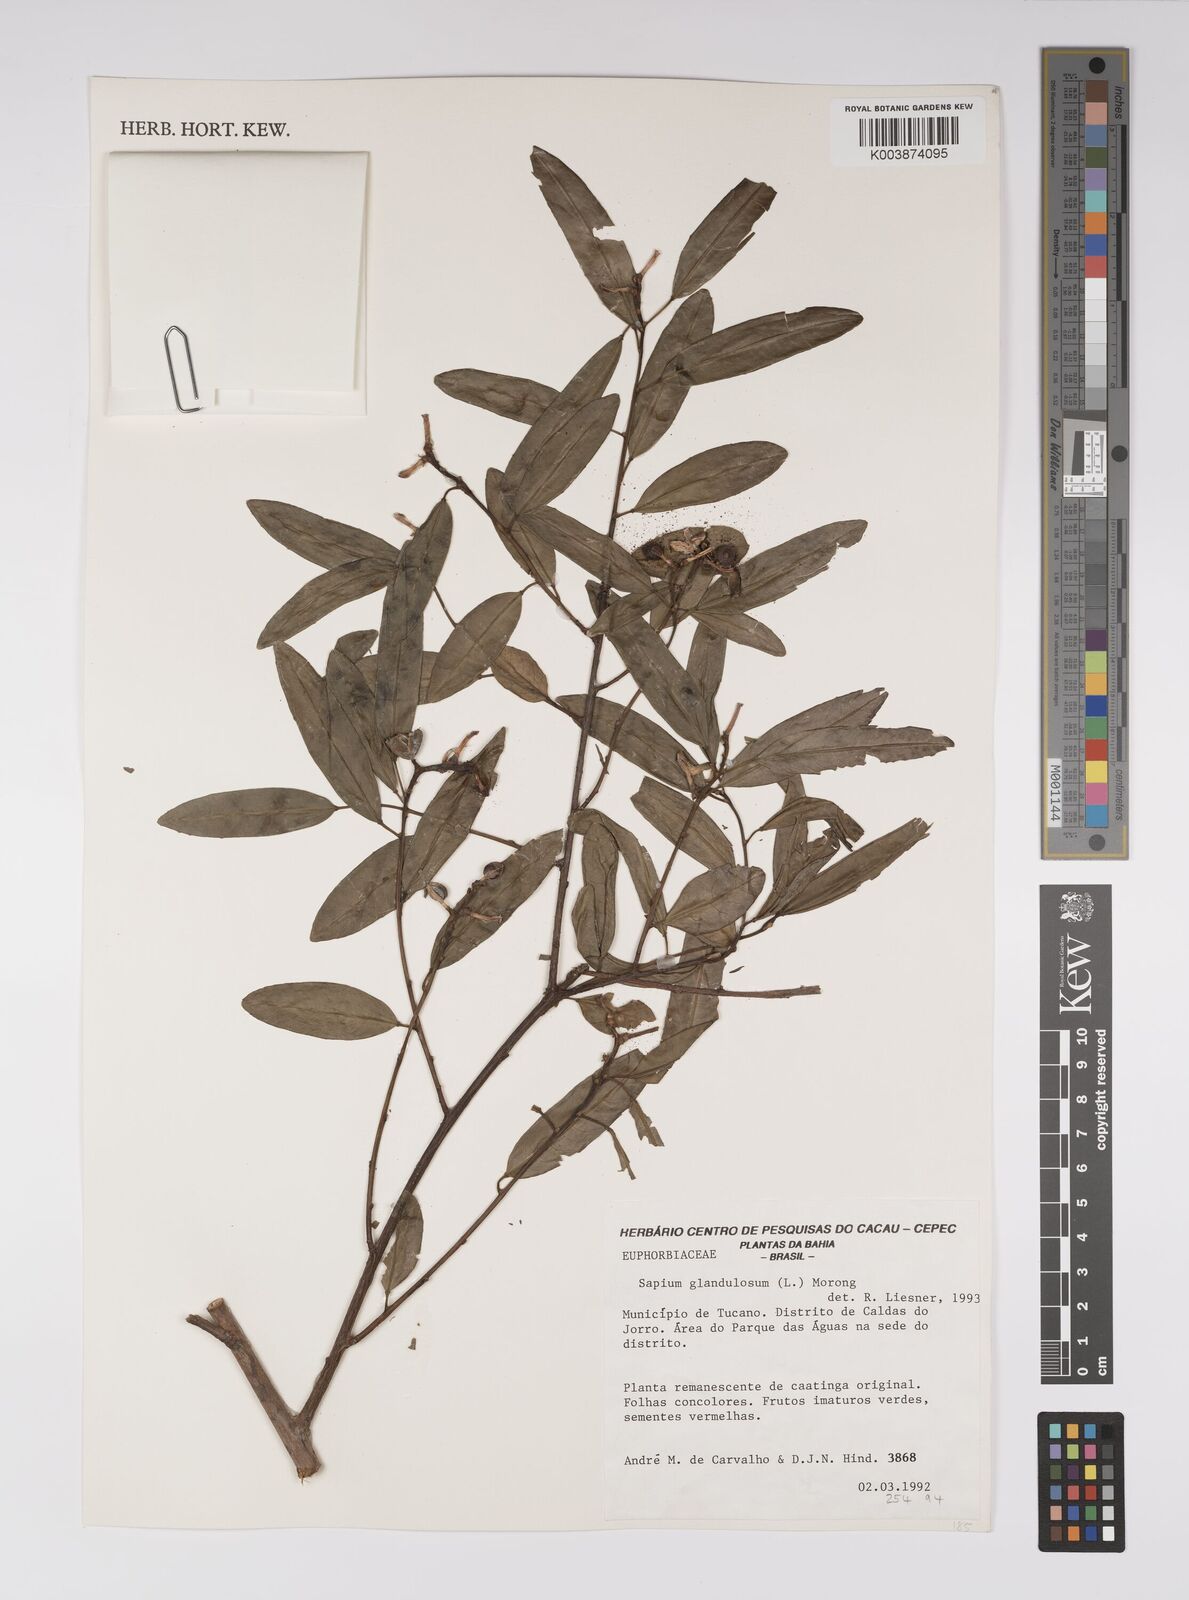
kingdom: Plantae
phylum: Tracheophyta
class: Magnoliopsida
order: Malpighiales
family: Euphorbiaceae
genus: Sapium
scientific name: Sapium glandulosum
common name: Milktree
